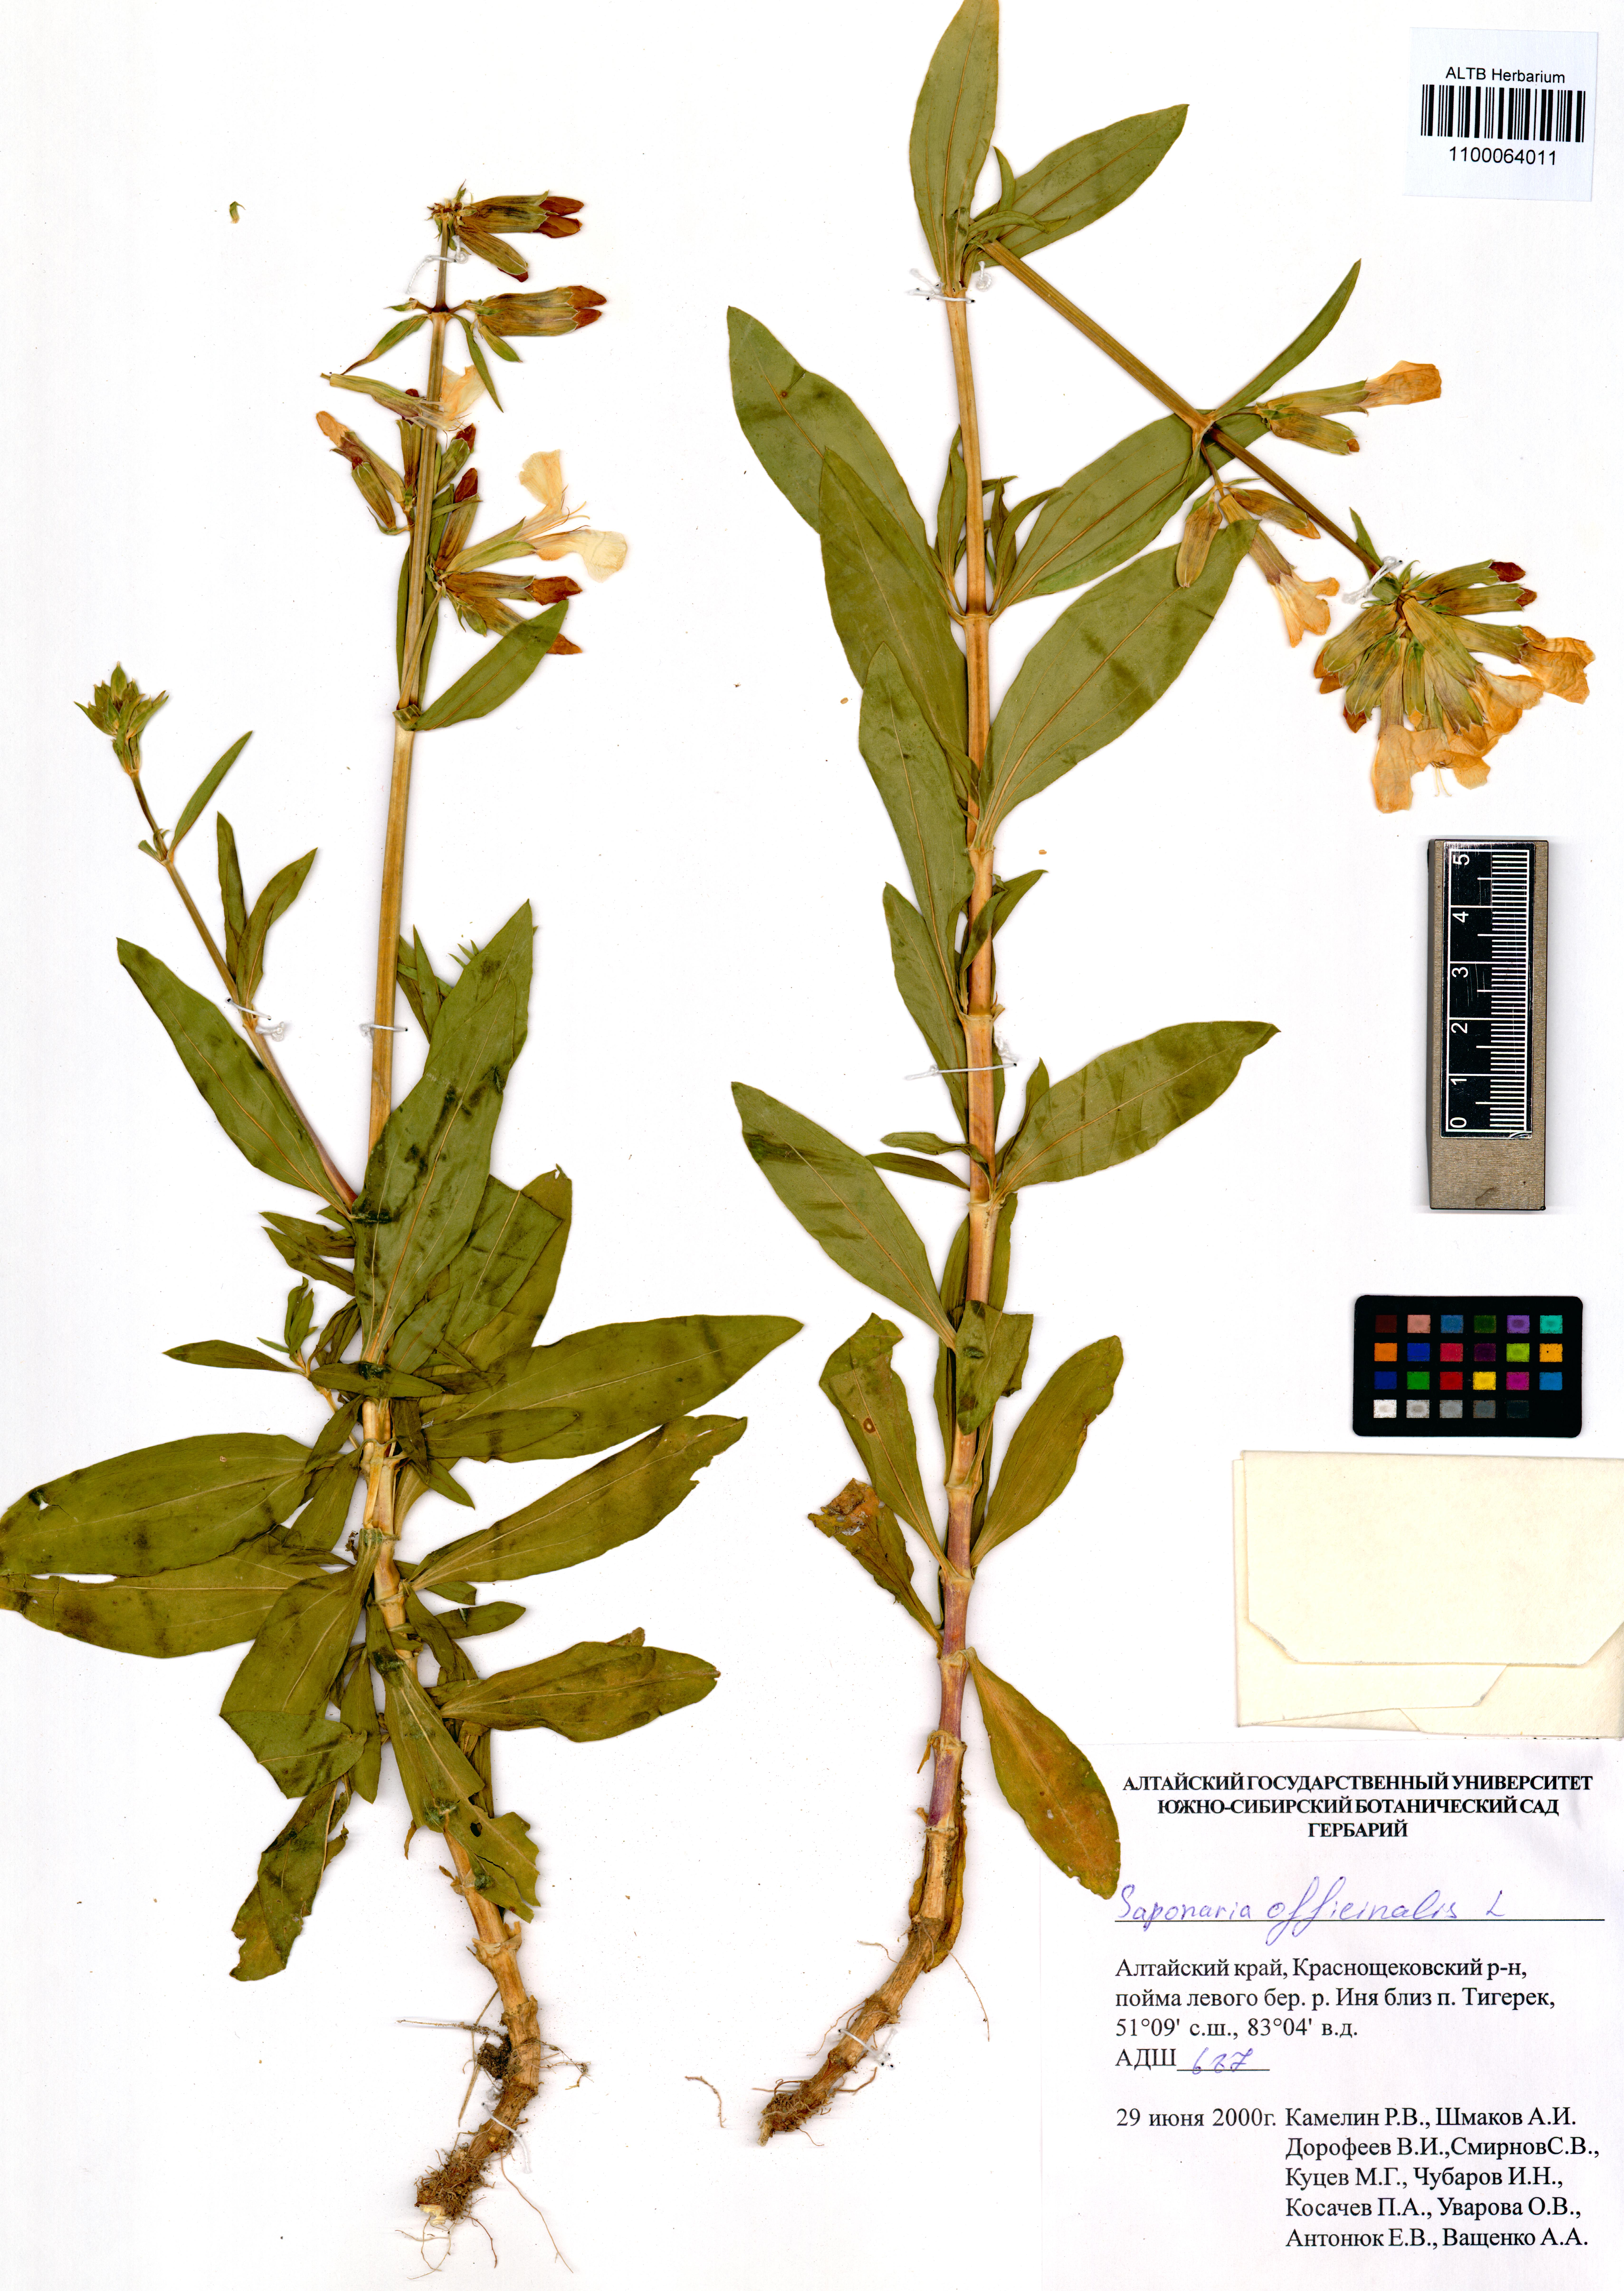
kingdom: Plantae
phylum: Tracheophyta
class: Magnoliopsida
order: Caryophyllales
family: Caryophyllaceae
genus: Saponaria
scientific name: Saponaria officinalis
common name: Soapwort
